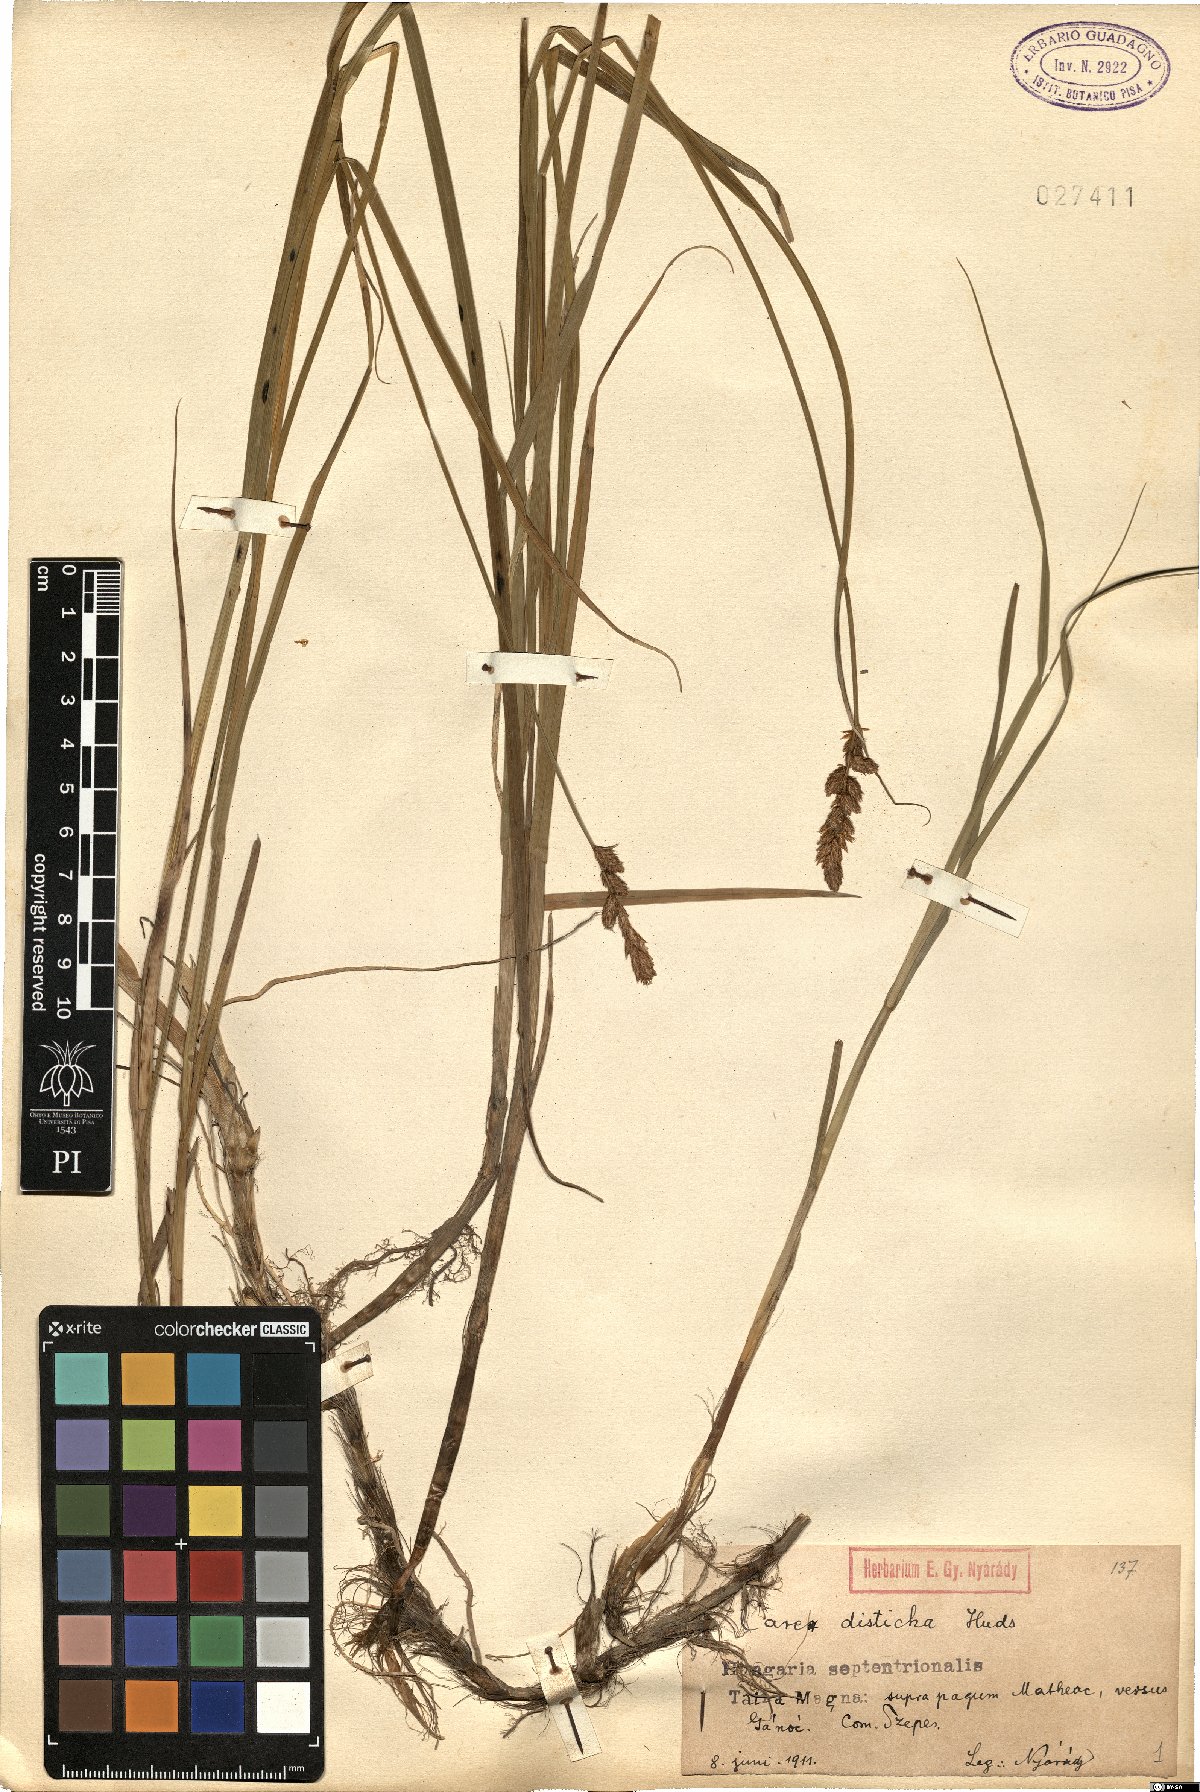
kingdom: Plantae
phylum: Tracheophyta
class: Liliopsida
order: Poales
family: Cyperaceae
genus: Carex
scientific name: Carex disticha
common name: Brown sedge
